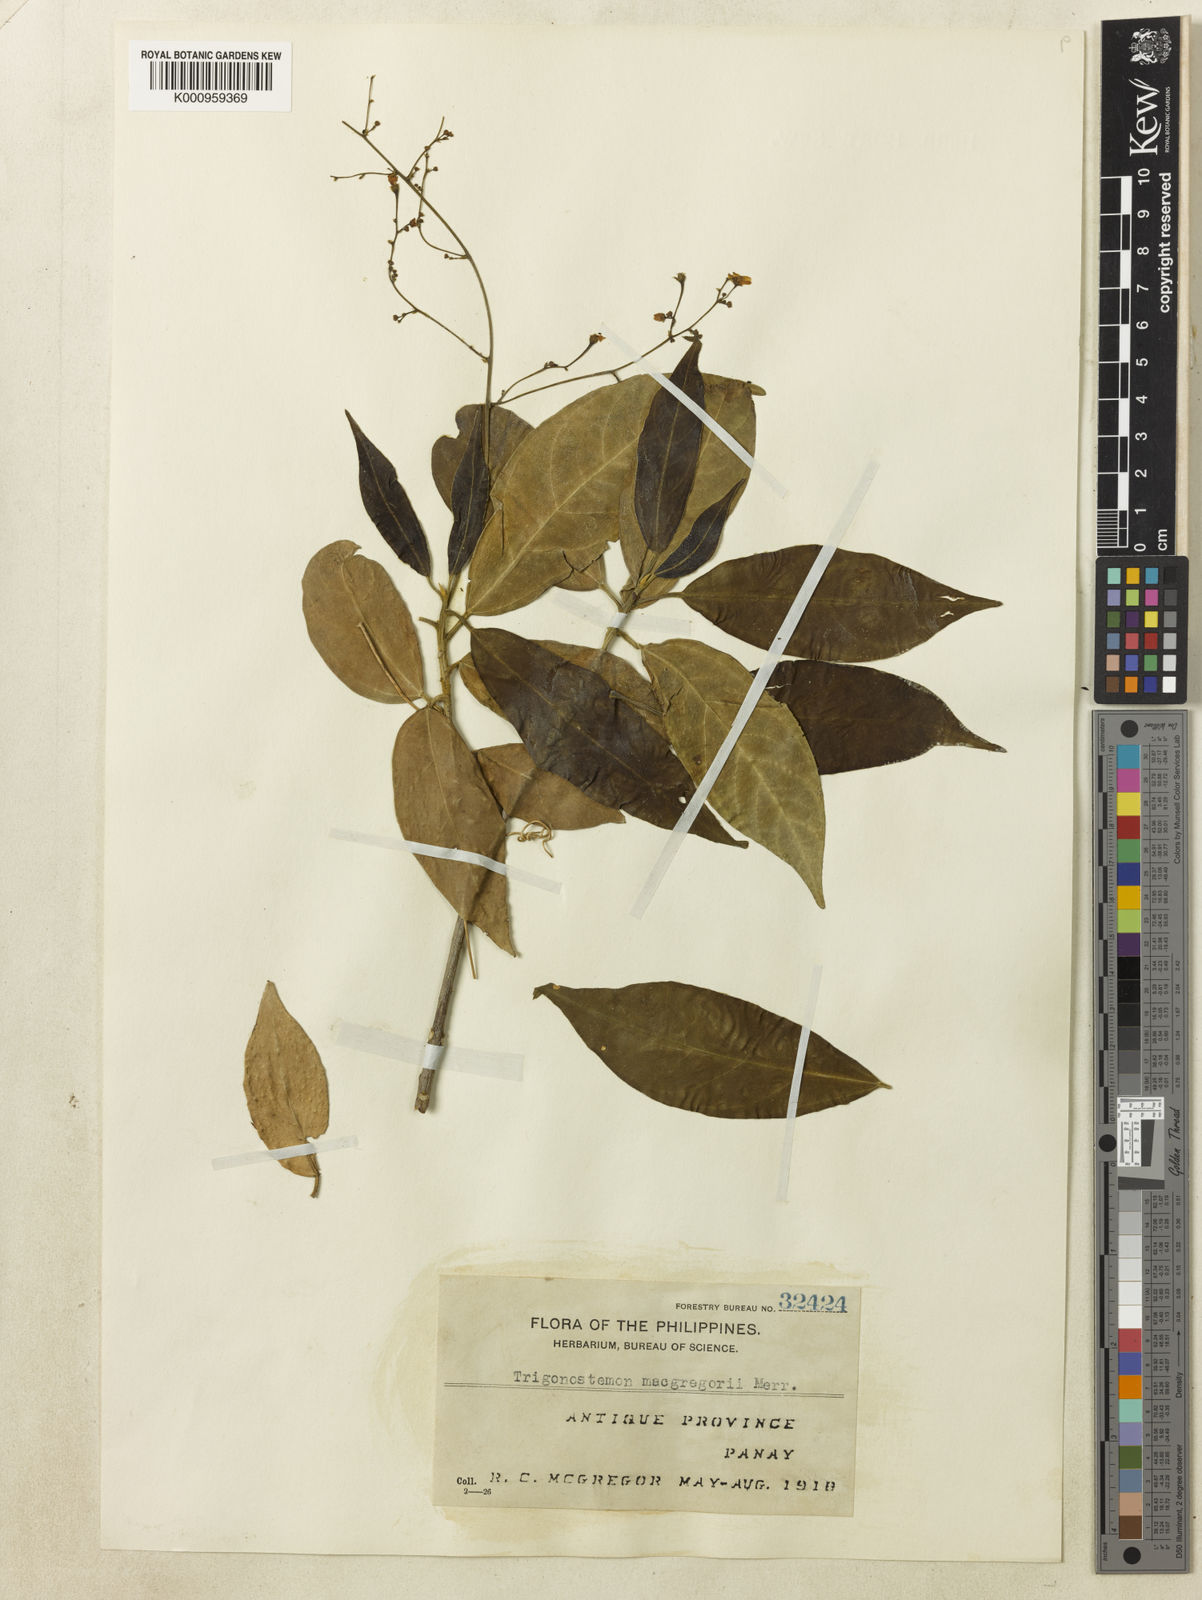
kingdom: Plantae
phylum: Tracheophyta
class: Magnoliopsida
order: Malpighiales
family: Euphorbiaceae
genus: Trigonostemon
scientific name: Trigonostemon viridissimus
